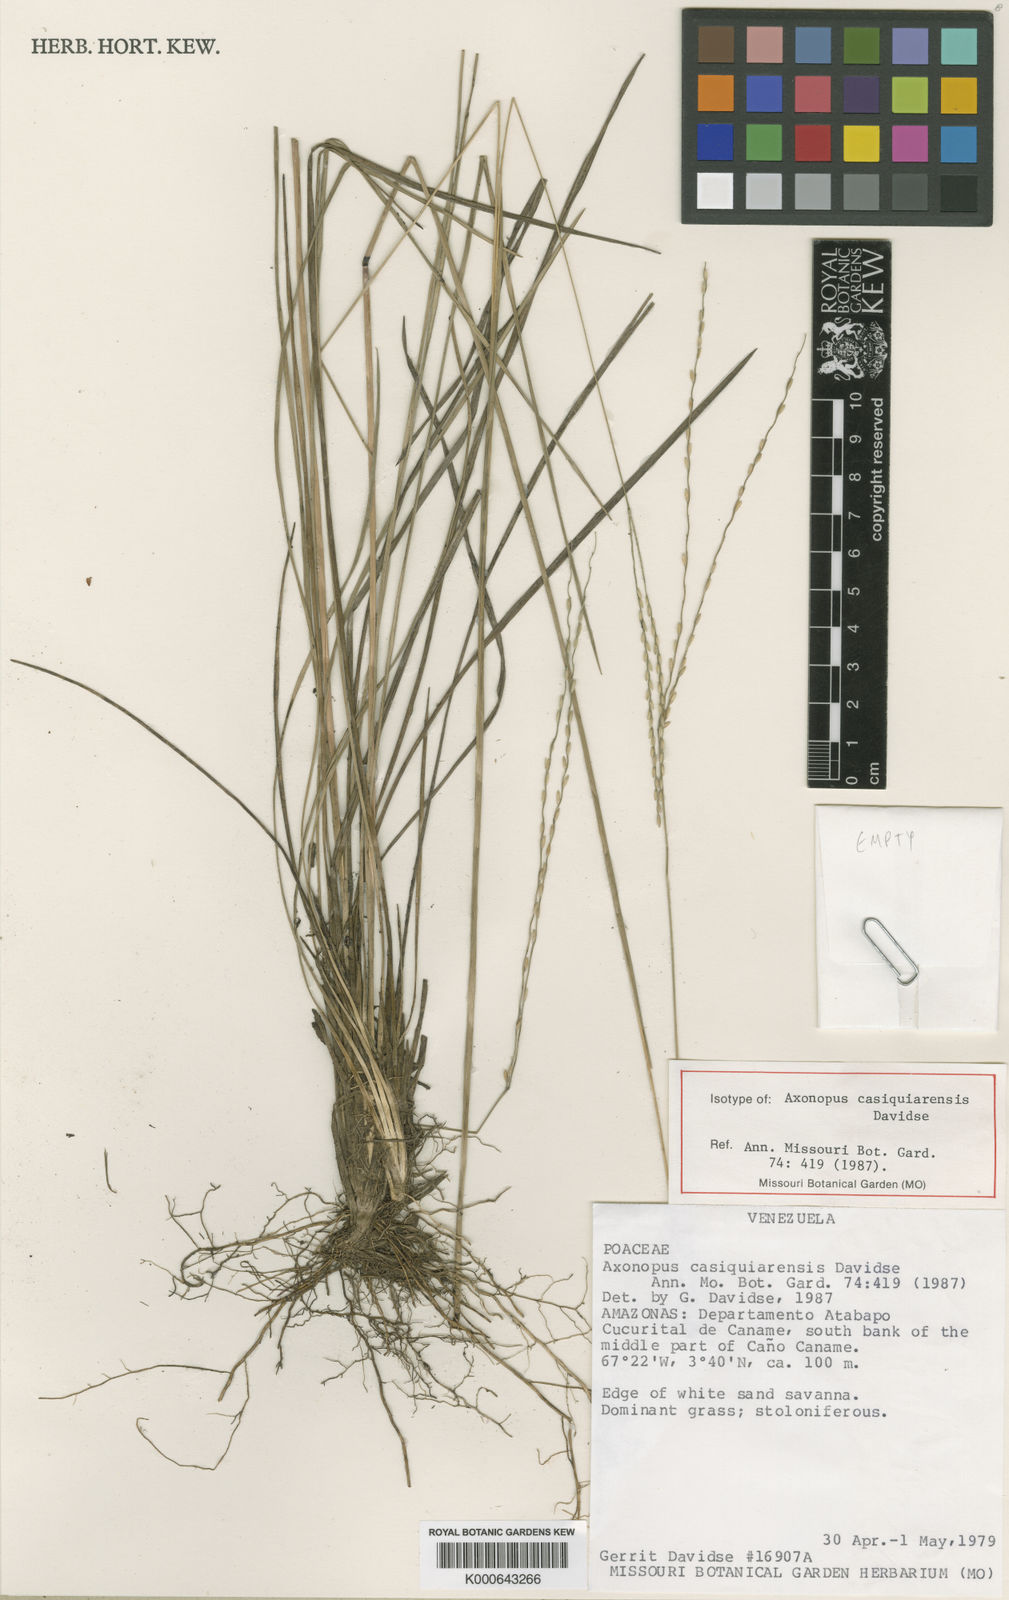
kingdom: Plantae
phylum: Tracheophyta
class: Liliopsida
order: Poales
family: Poaceae
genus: Axonopus
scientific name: Axonopus casiquiarensis
